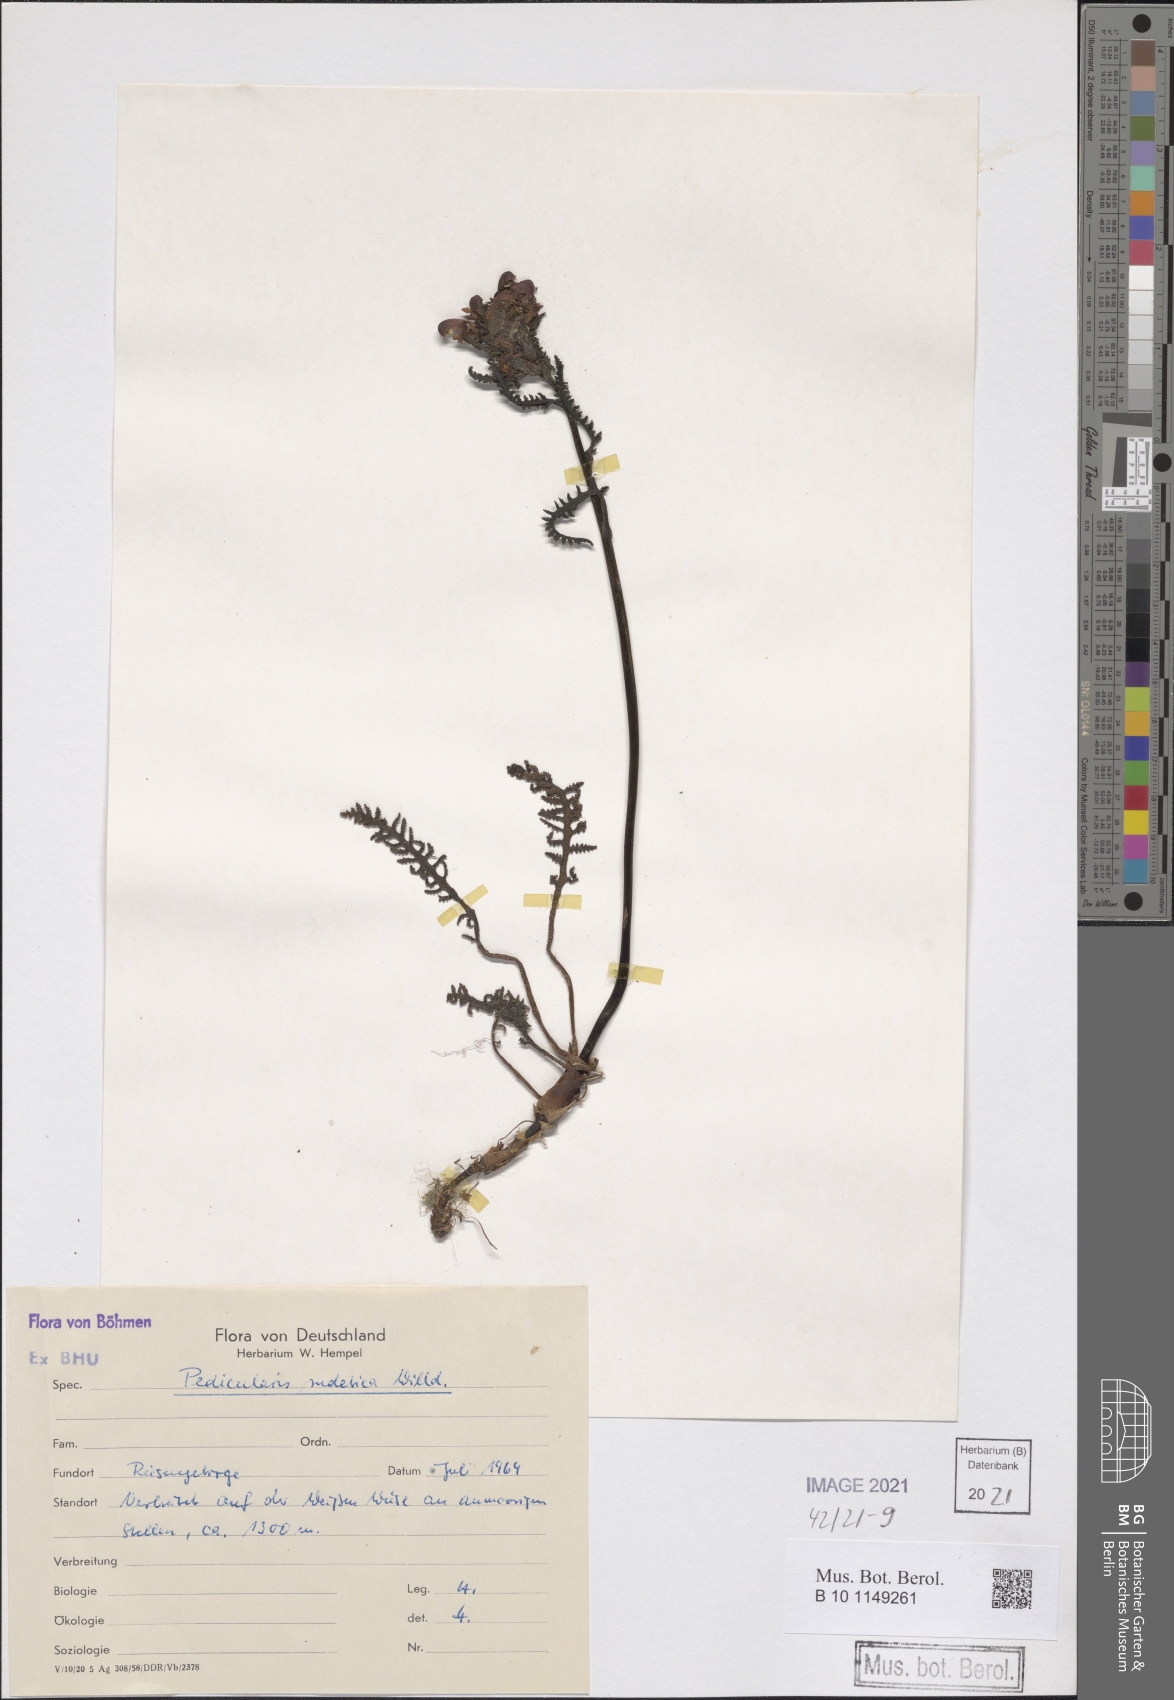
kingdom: Plantae
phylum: Tracheophyta
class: Magnoliopsida
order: Lamiales
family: Orobanchaceae
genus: Pedicularis
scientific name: Pedicularis sudetica
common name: Sudeten lousewort
